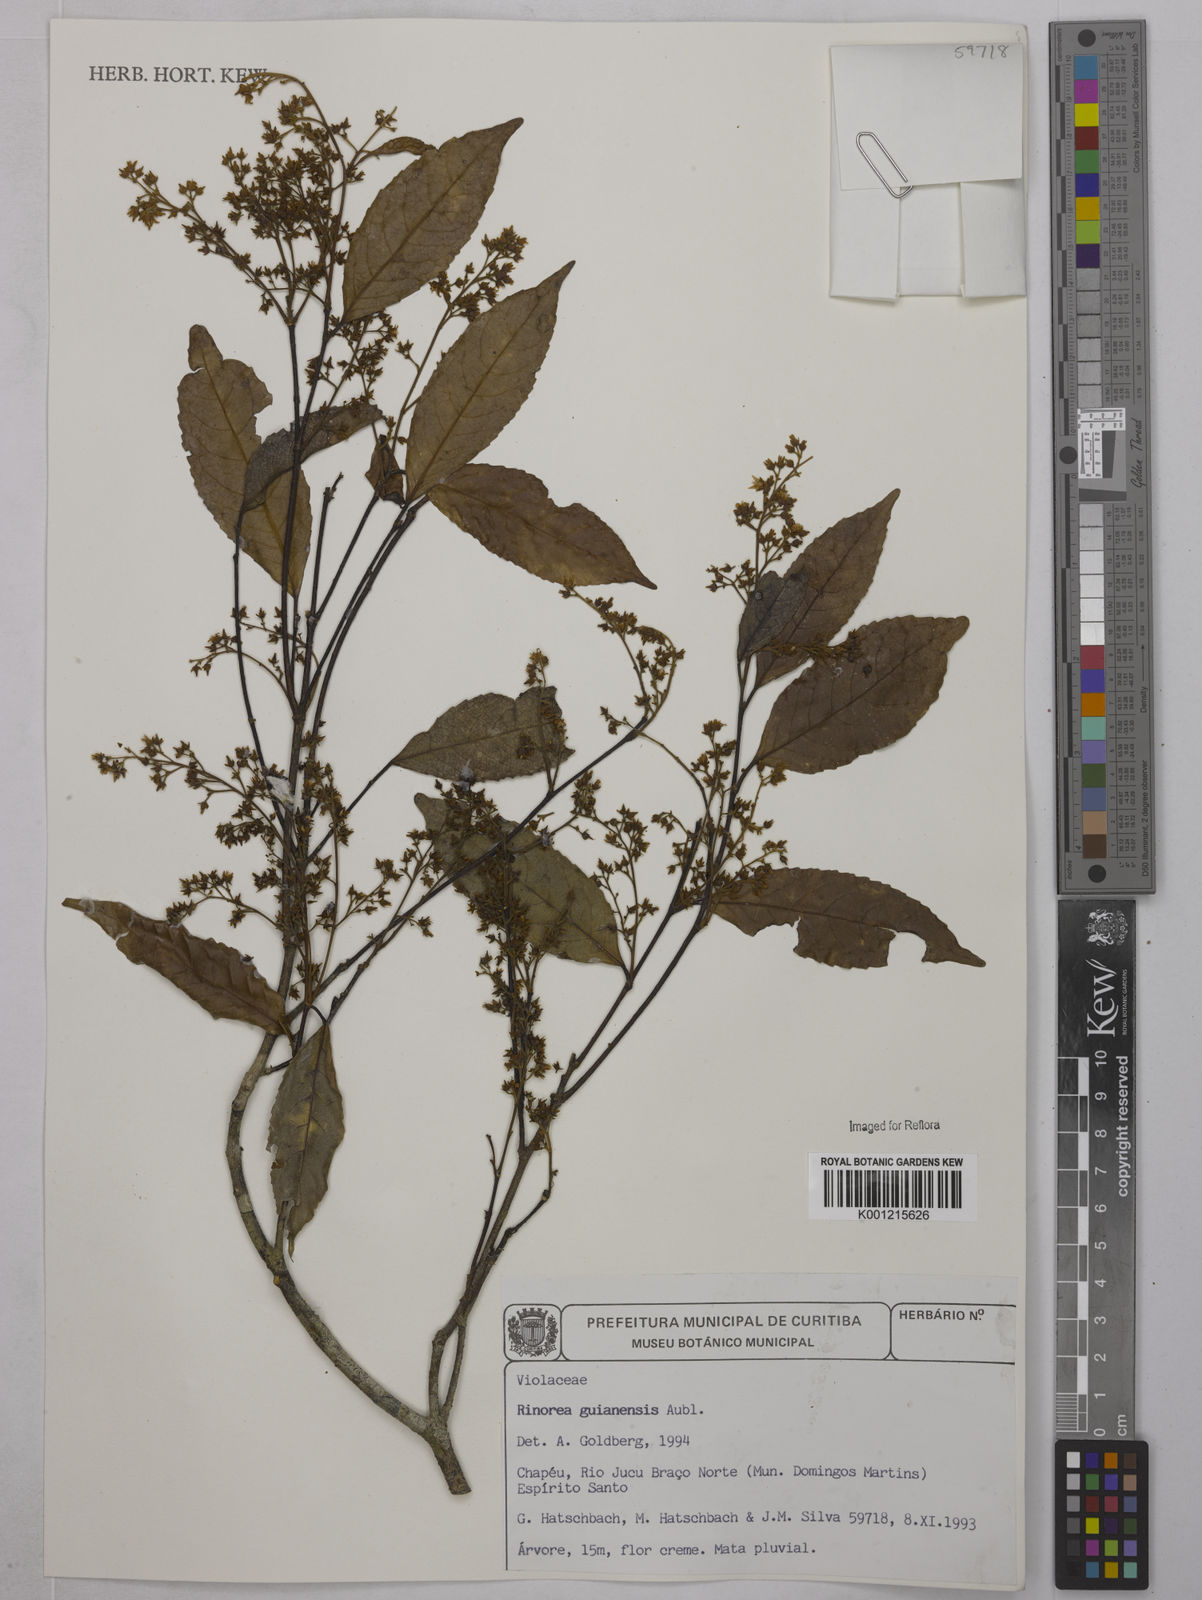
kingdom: Plantae
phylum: Tracheophyta
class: Magnoliopsida
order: Malpighiales
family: Violaceae
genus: Rinorea
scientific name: Rinorea guianensis
